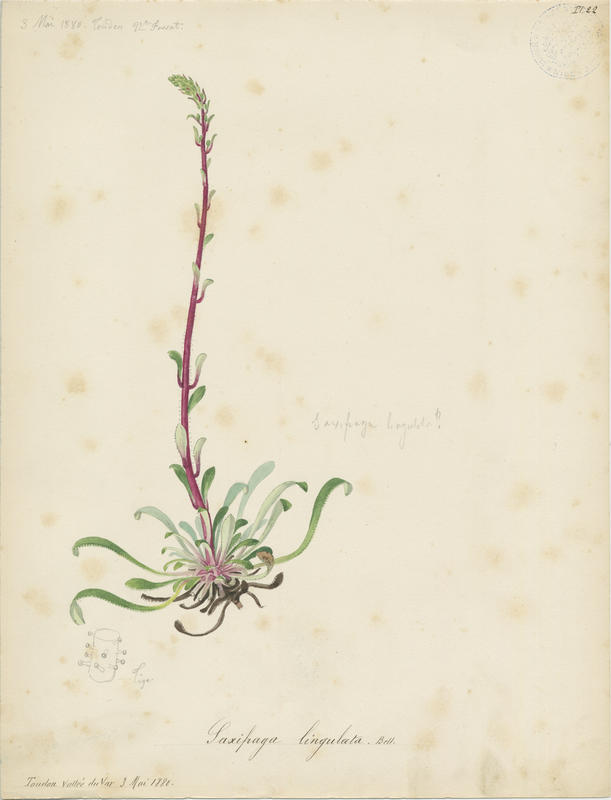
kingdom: Plantae
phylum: Tracheophyta
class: Magnoliopsida
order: Saxifragales
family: Saxifragaceae
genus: Saxifraga
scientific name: Saxifraga callosa
